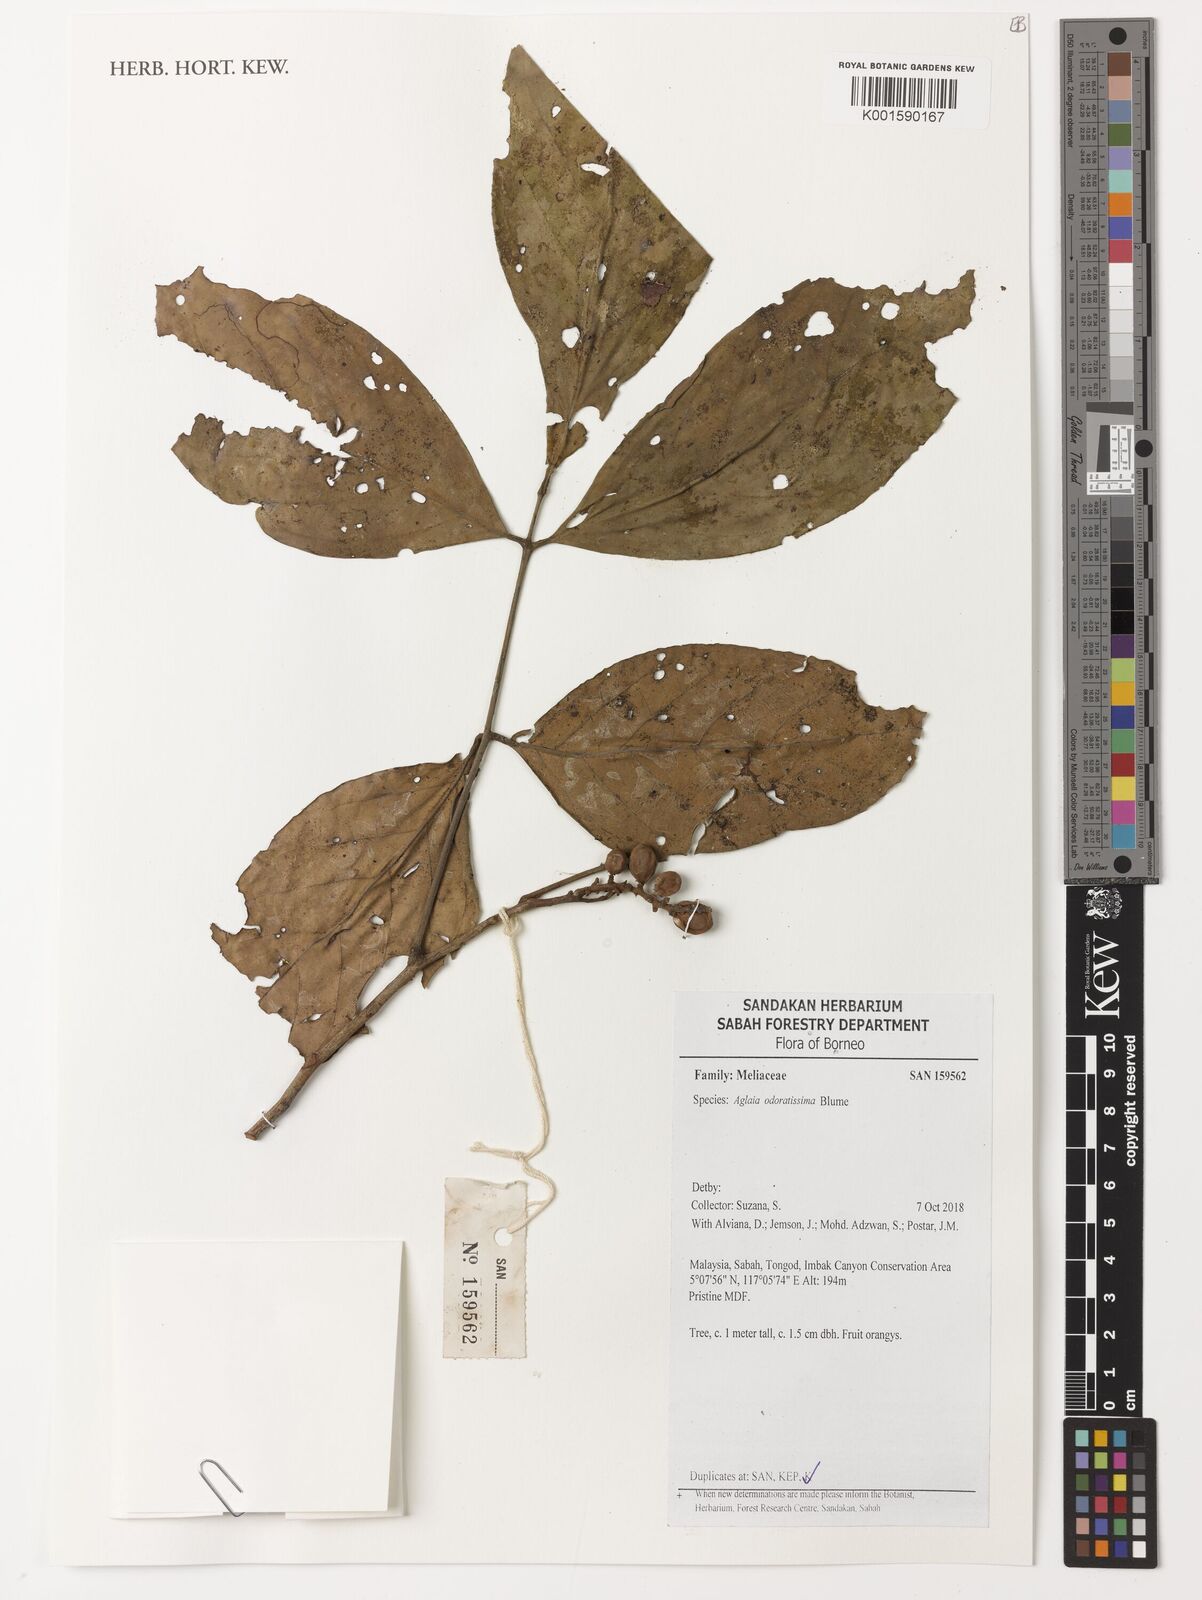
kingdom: Plantae
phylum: Tracheophyta
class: Magnoliopsida
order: Sapindales
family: Meliaceae
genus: Aglaia
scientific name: Aglaia odoratissima
